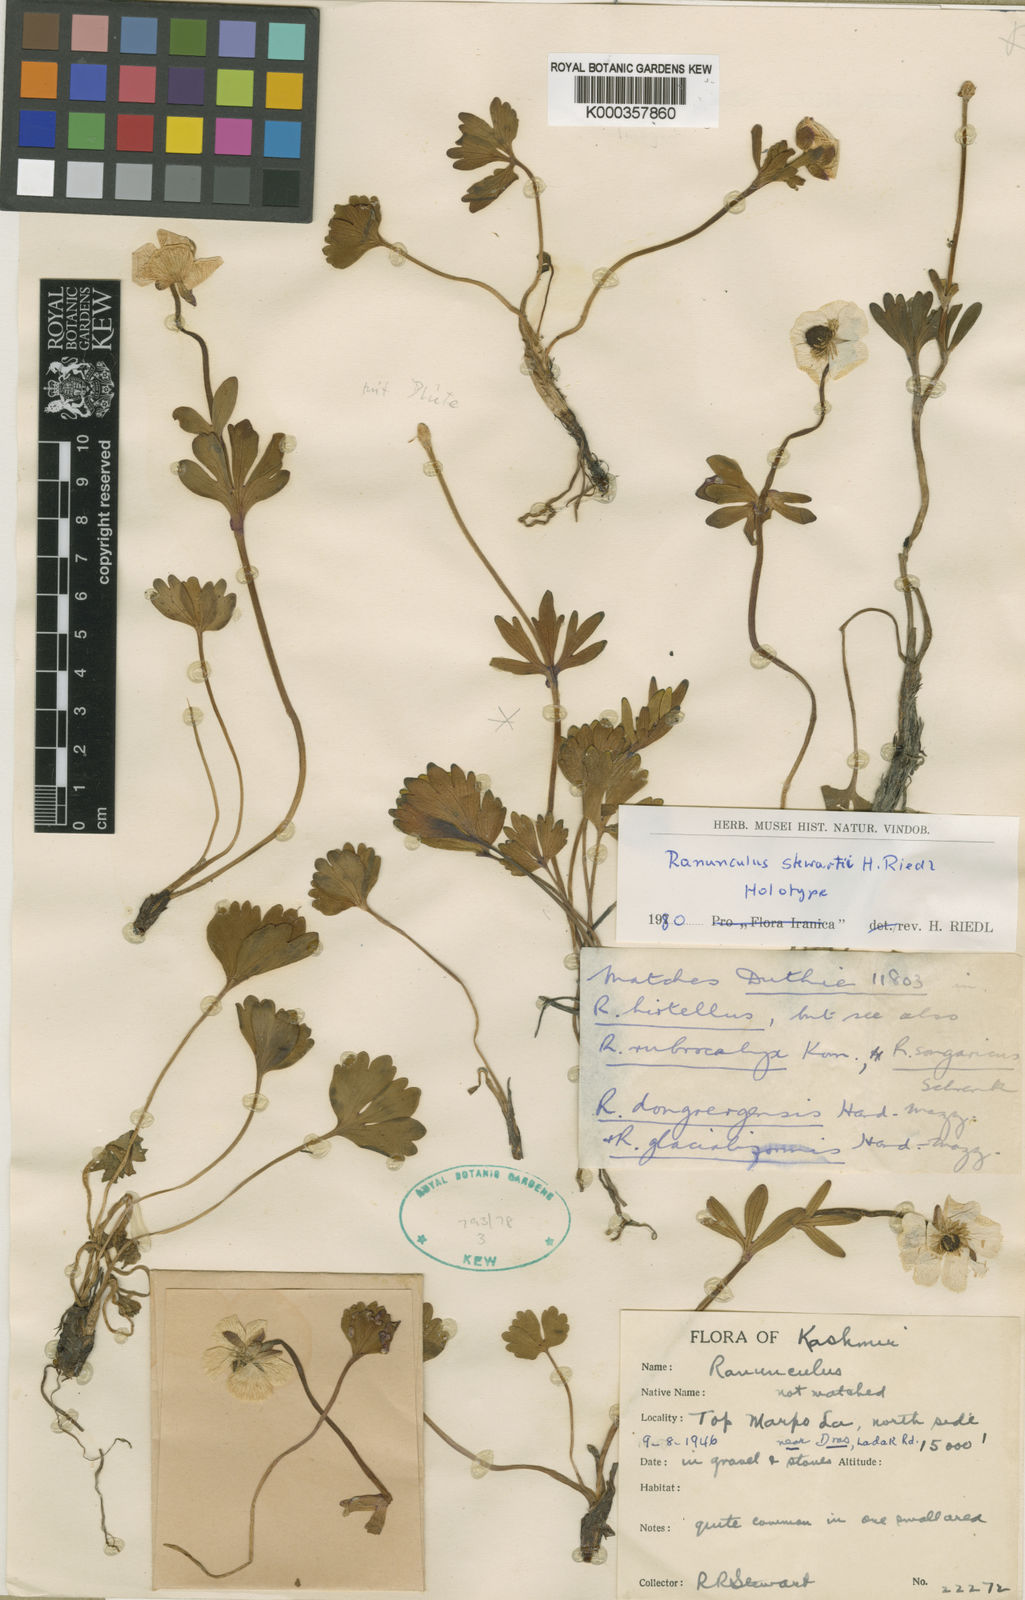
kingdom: Plantae
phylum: Tracheophyta
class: Magnoliopsida
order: Ranunculales
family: Ranunculaceae
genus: Ranunculus
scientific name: Ranunculus stewartii
